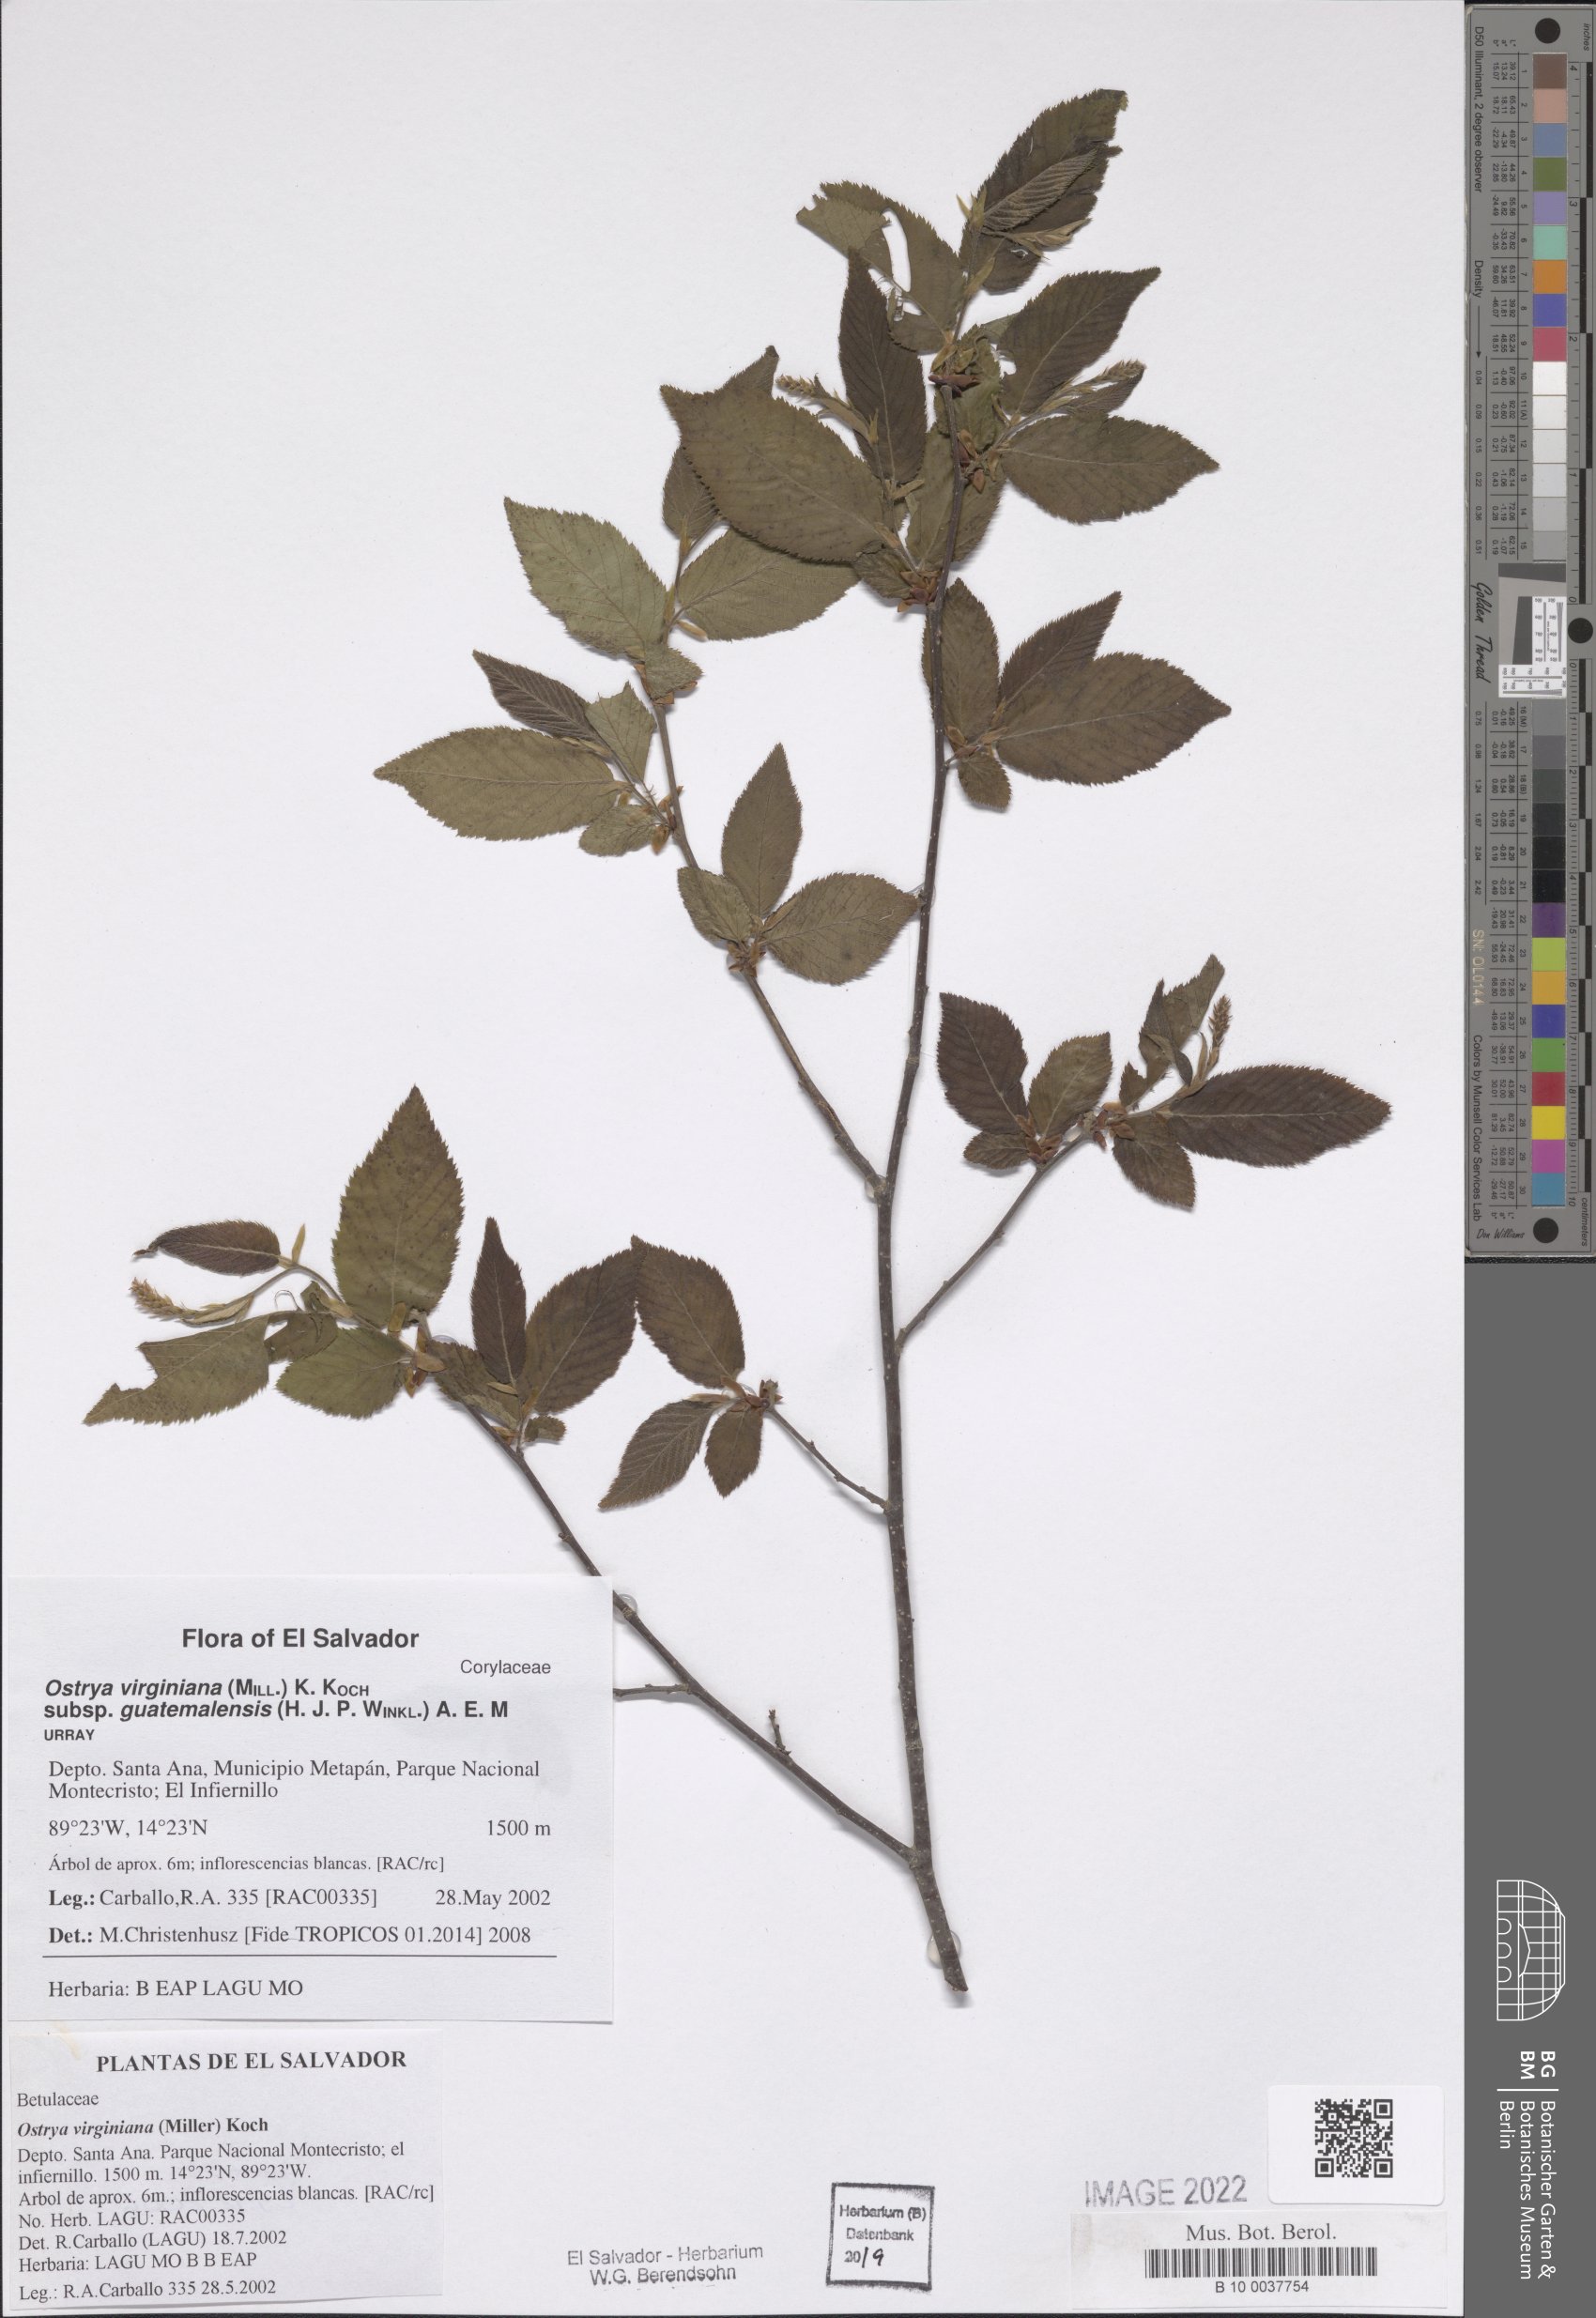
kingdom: Plantae
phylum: Tracheophyta
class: Magnoliopsida
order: Fagales
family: Betulaceae
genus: Ostrya
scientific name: Ostrya virginiana
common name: Ironwood
